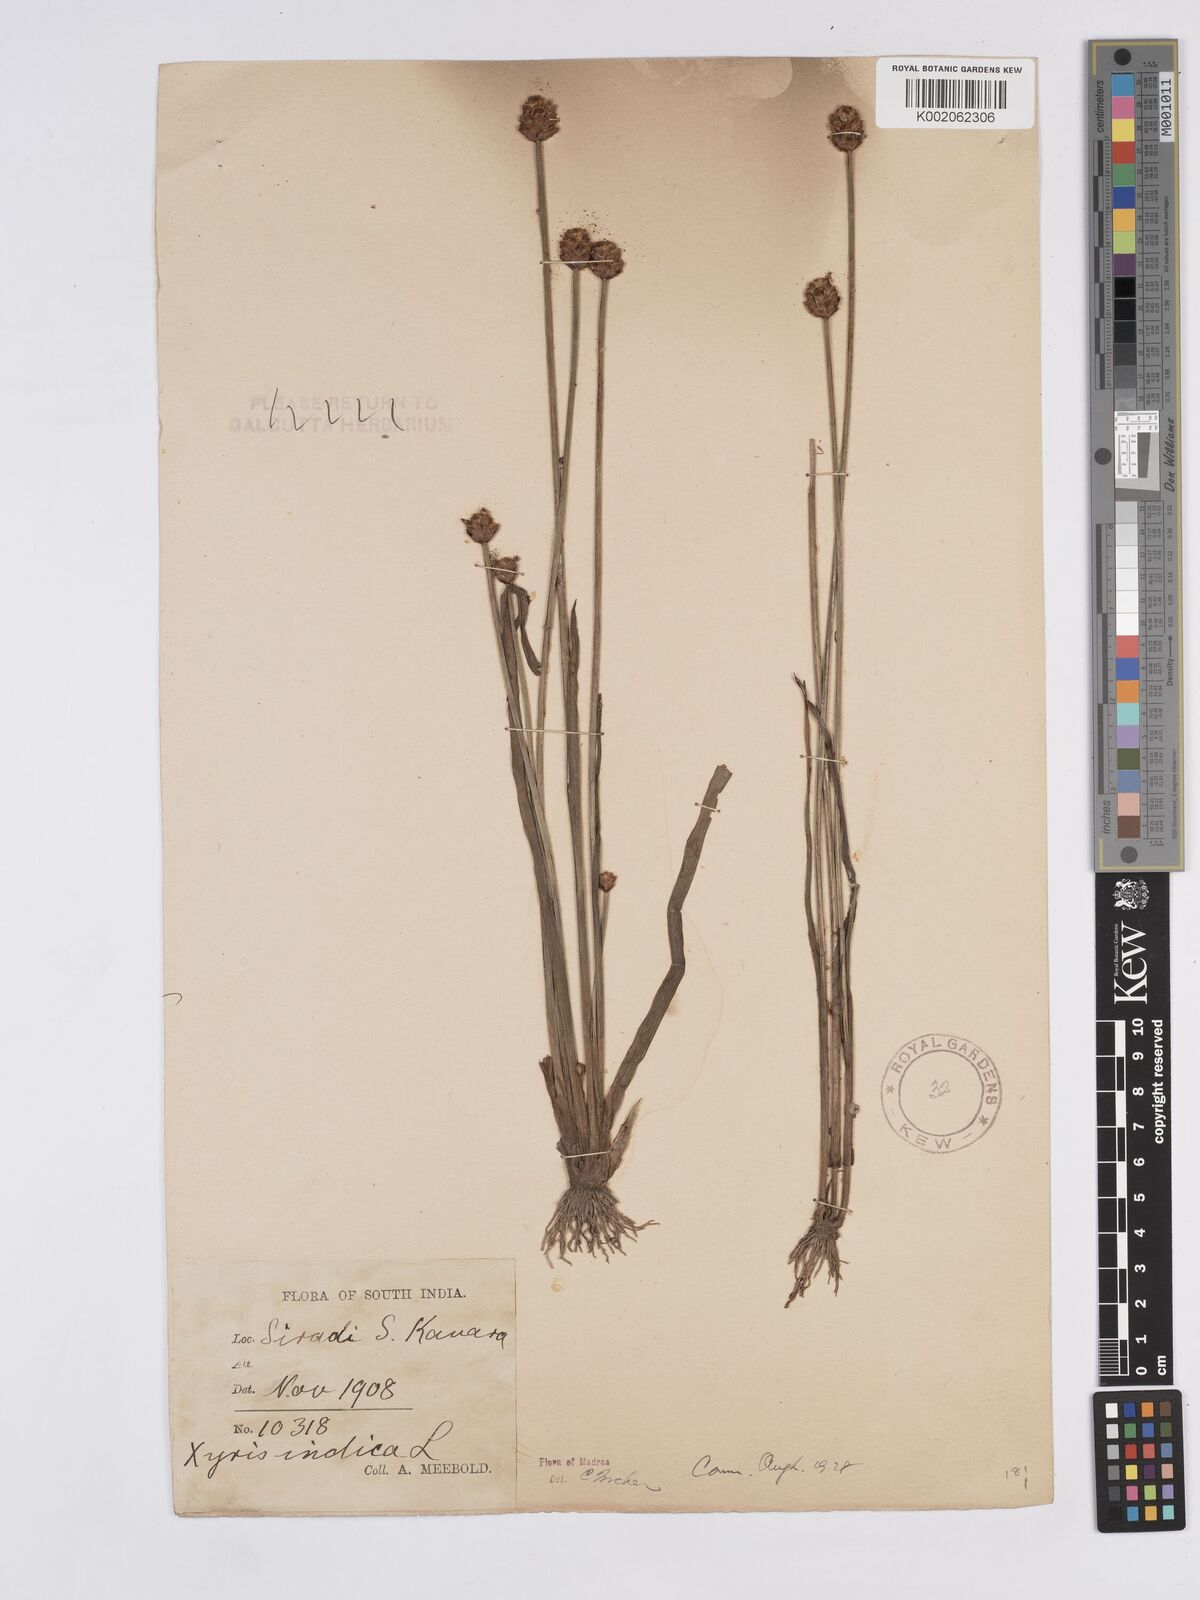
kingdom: Plantae
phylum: Tracheophyta
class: Liliopsida
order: Poales
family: Xyridaceae
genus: Xyris
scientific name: Xyris indica
